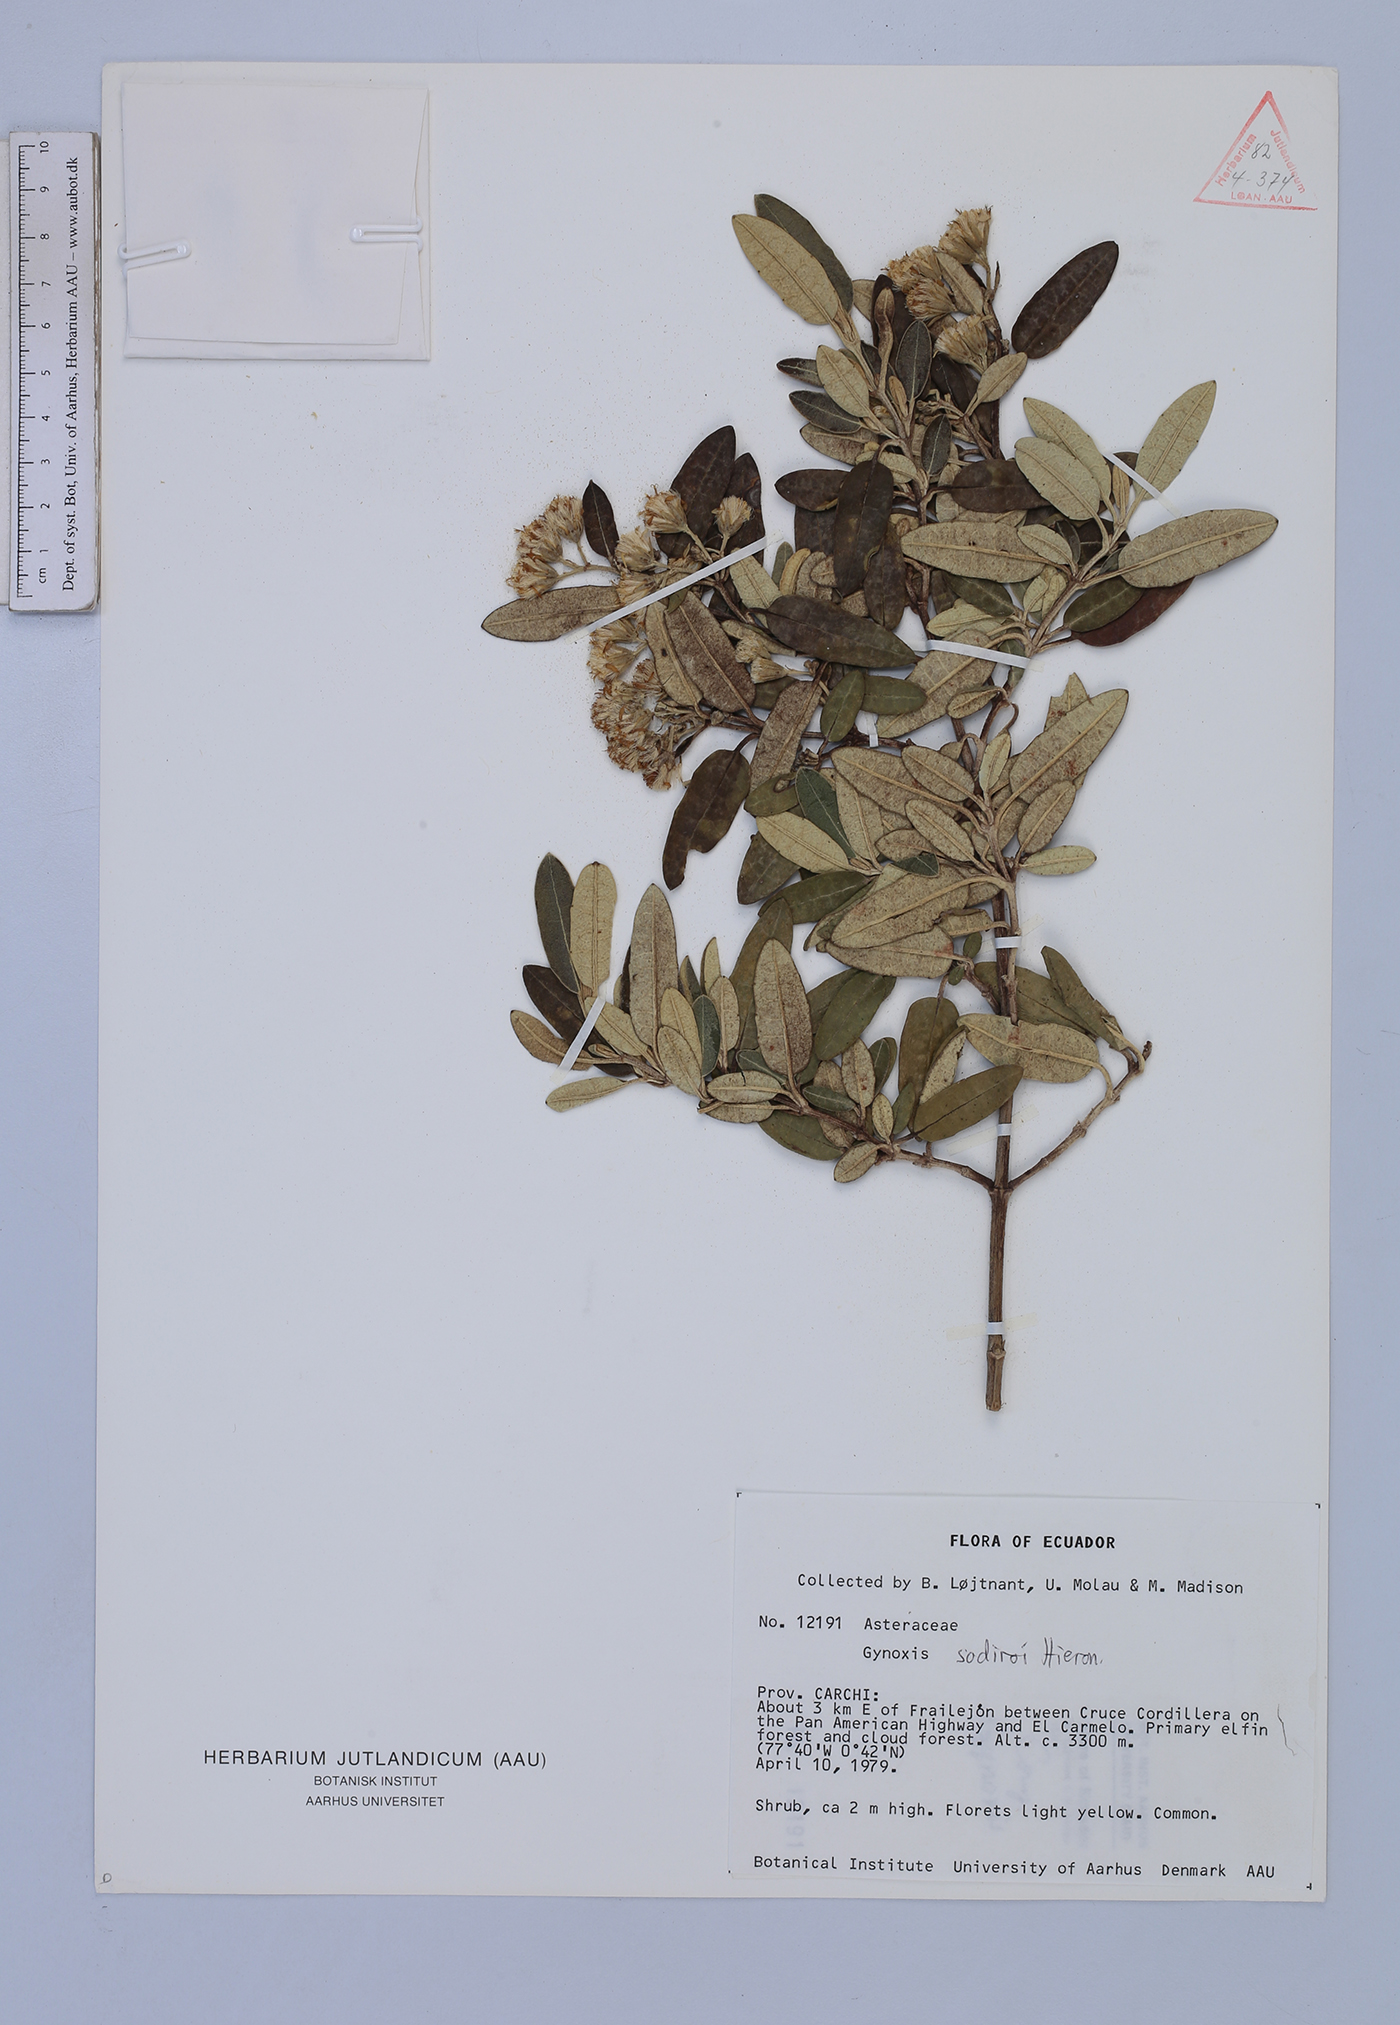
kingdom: Plantae
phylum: Tracheophyta
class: Magnoliopsida
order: Asterales
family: Asteraceae
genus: Gynoxys
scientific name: Gynoxys sodiroi
